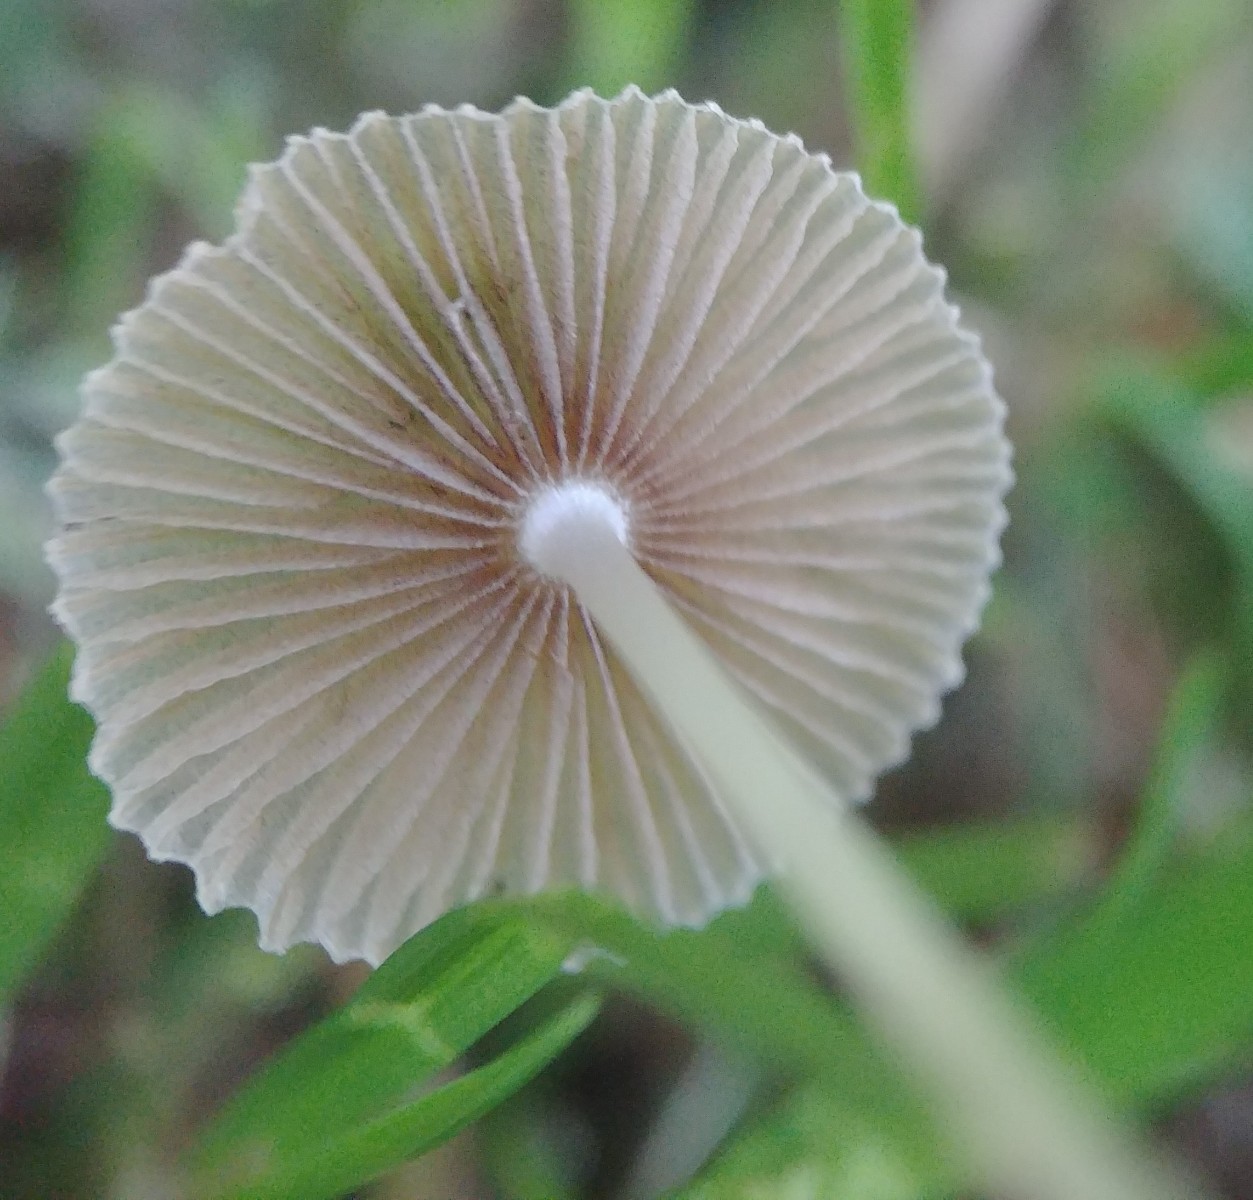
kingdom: Fungi
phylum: Basidiomycota
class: Agaricomycetes
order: Agaricales
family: Psathyrellaceae
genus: Parasola
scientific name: Parasola
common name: hjulhat
